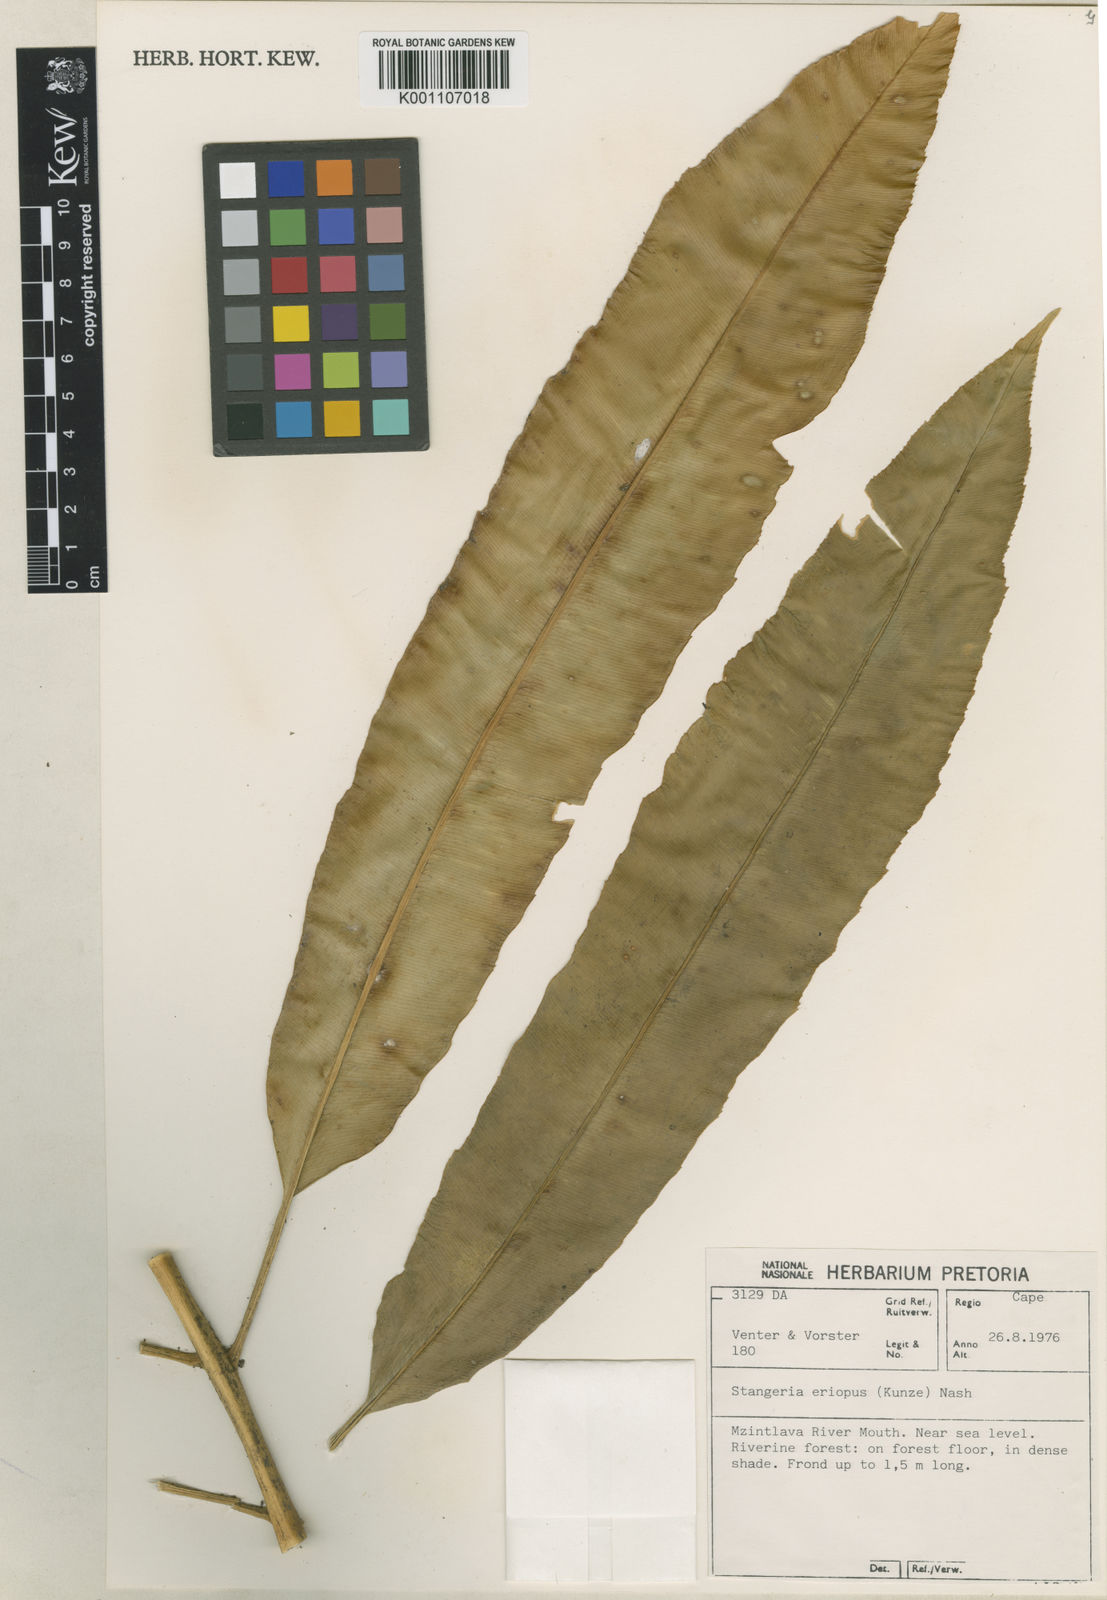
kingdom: Plantae
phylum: Tracheophyta
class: Cycadopsida
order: Cycadales
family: Zamiaceae
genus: Stangeria
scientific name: Stangeria
